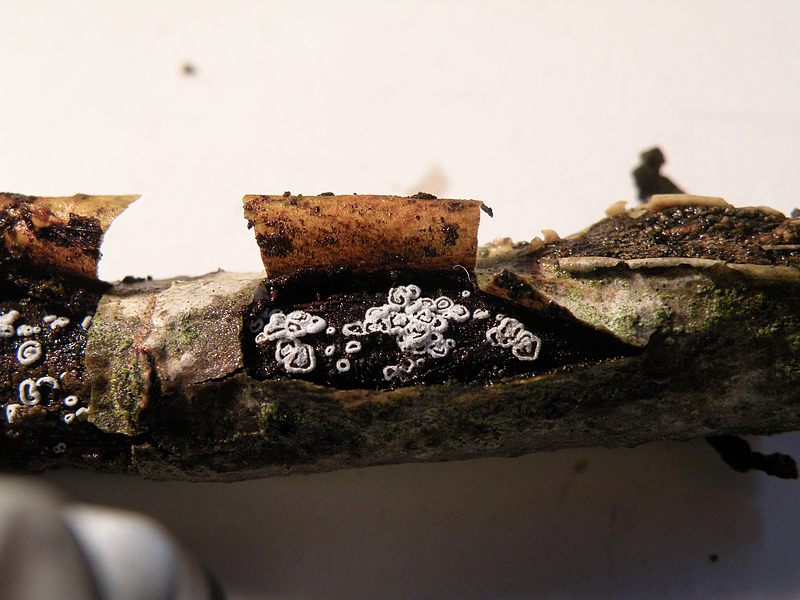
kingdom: Fungi
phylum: Basidiomycota
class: Agaricomycetes
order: Agaricales
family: Niaceae
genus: Lachnella
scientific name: Lachnella alboviolascens
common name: grå frynserede
